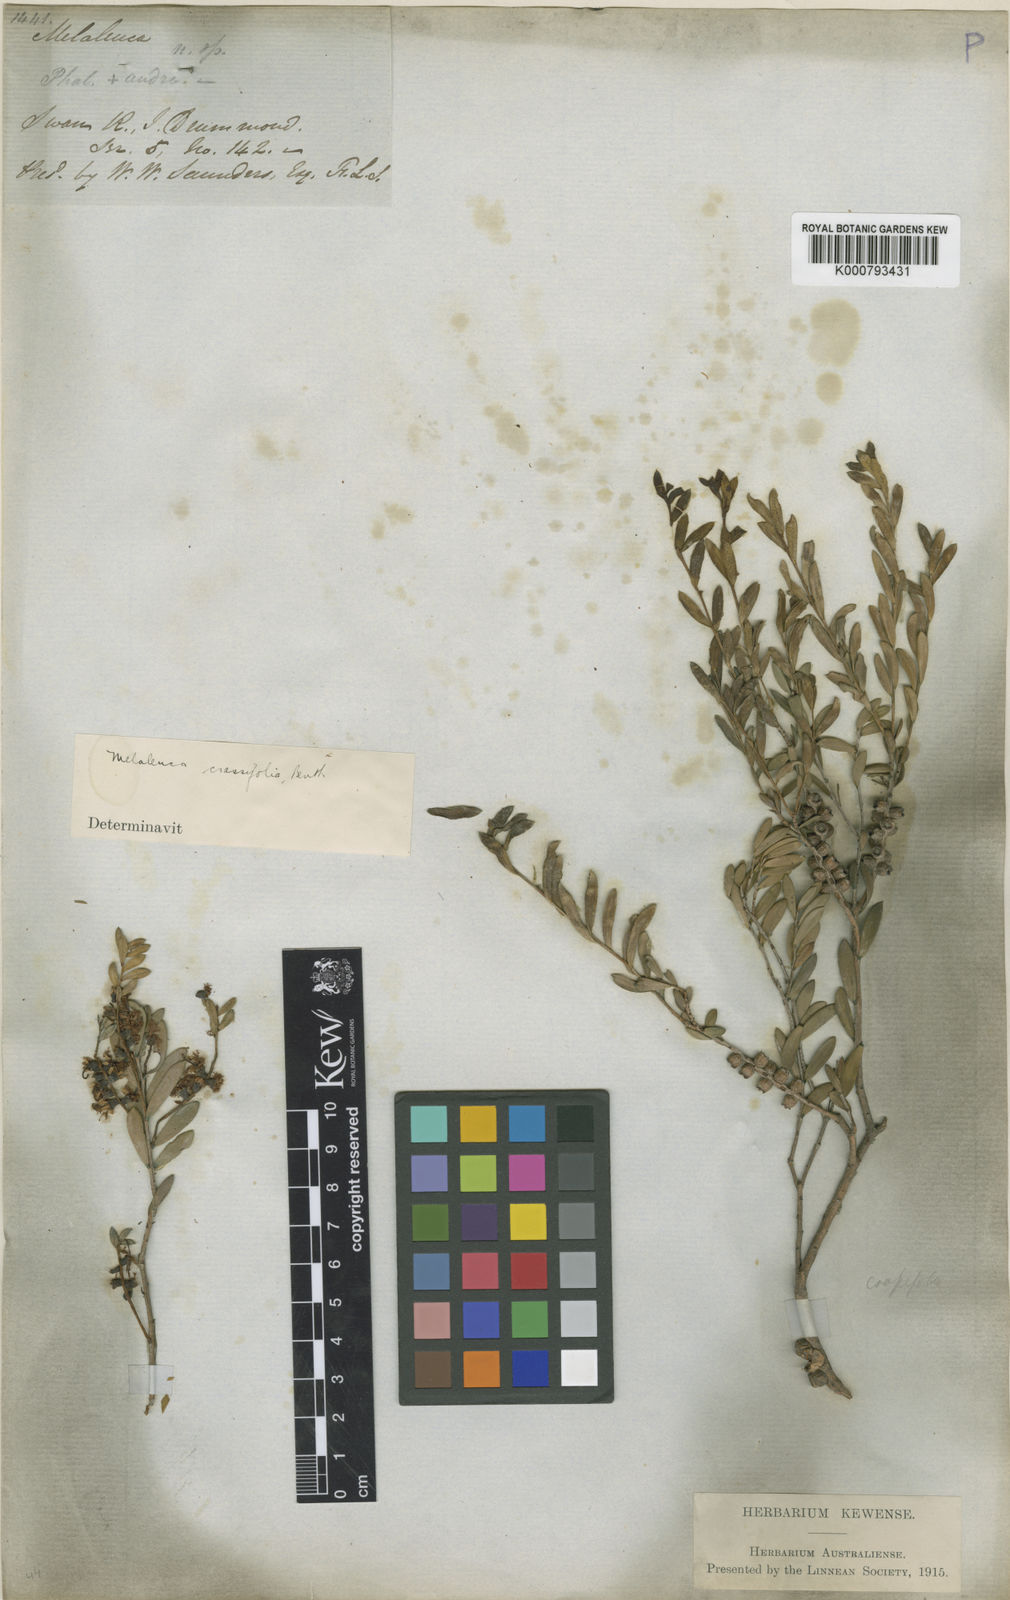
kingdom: Plantae
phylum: Tracheophyta
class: Magnoliopsida
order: Myrtales
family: Myrtaceae
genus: Melaleuca
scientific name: Melaleuca laxiflora
